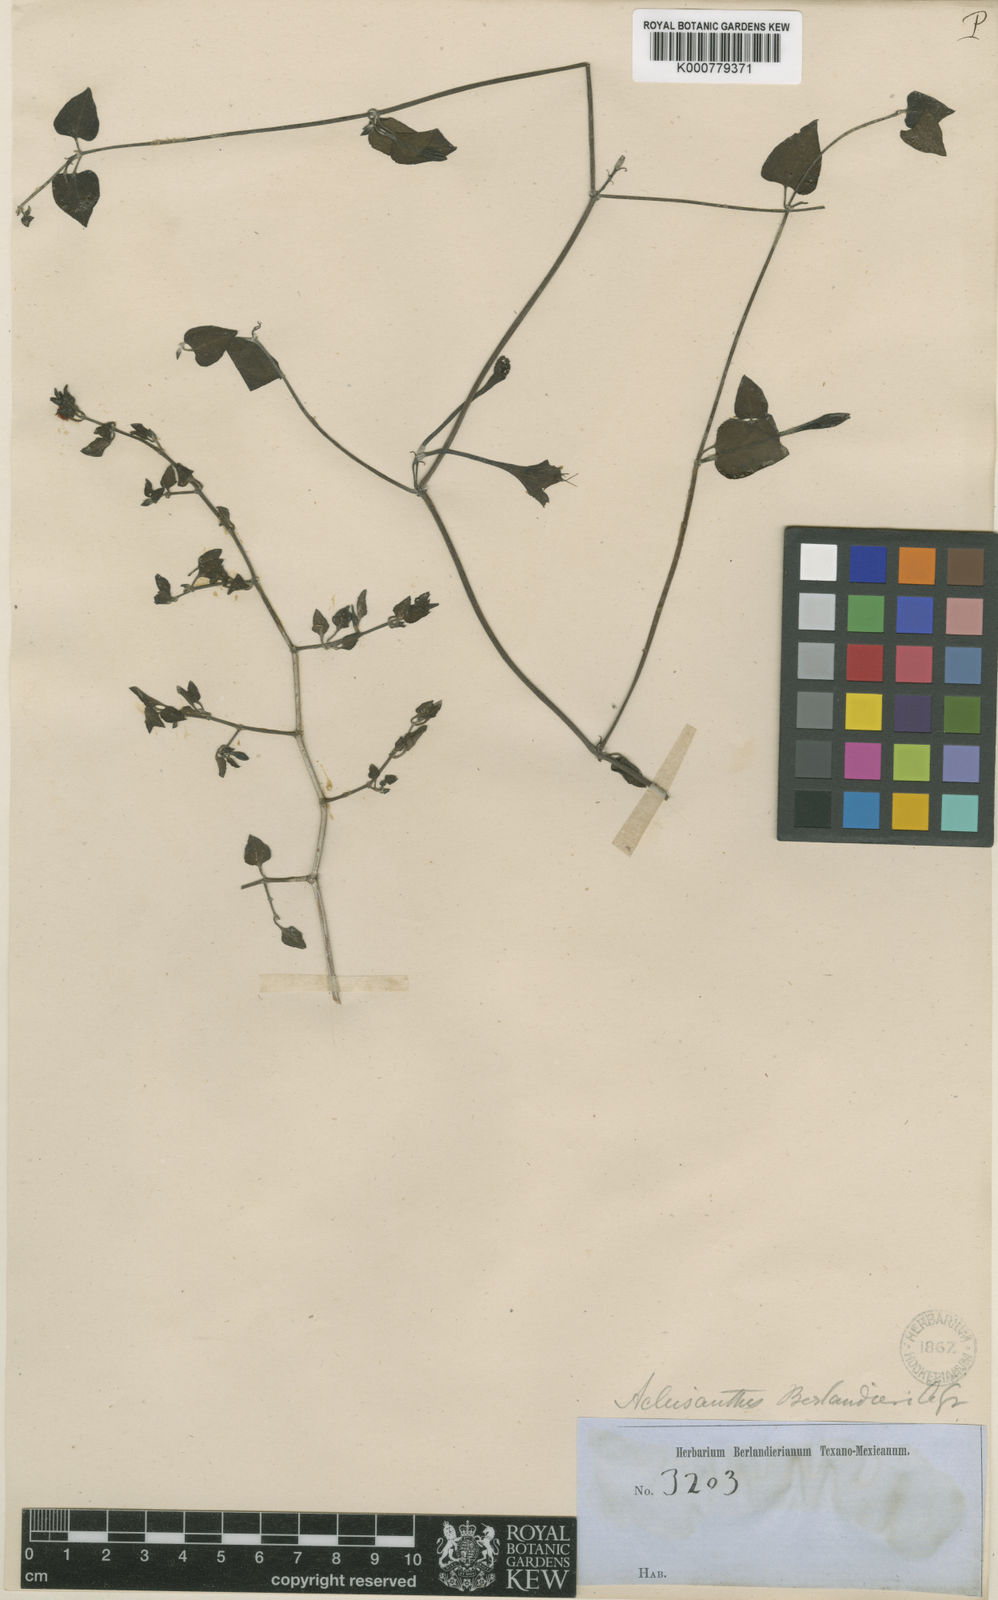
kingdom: Plantae
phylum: Tracheophyta
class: Magnoliopsida
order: Caryophyllales
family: Nyctaginaceae
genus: Acleisanthes
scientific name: Acleisanthes obtusa
